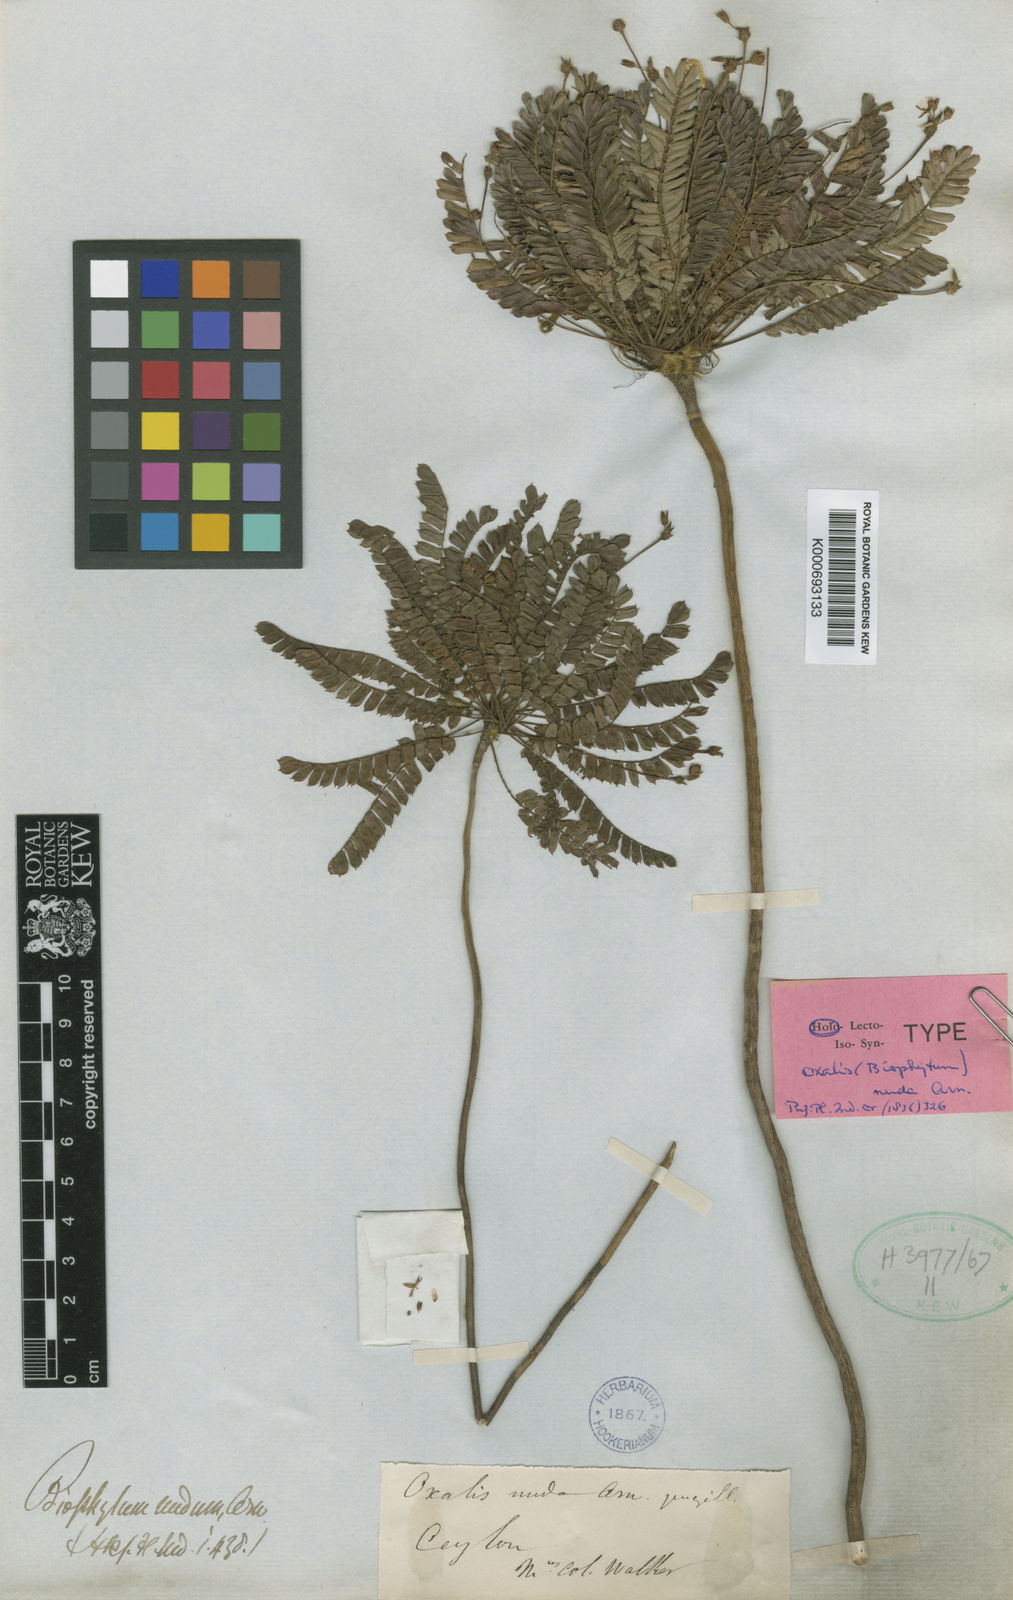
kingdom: Plantae
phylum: Tracheophyta
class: Magnoliopsida
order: Oxalidales
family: Oxalidaceae
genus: Biophytum
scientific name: Biophytum
